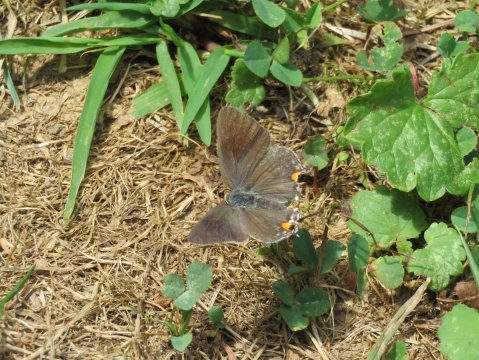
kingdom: Animalia
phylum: Arthropoda
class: Insecta
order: Lepidoptera
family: Lycaenidae
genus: Strymon
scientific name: Strymon melinus
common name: Gray Hairstreak
